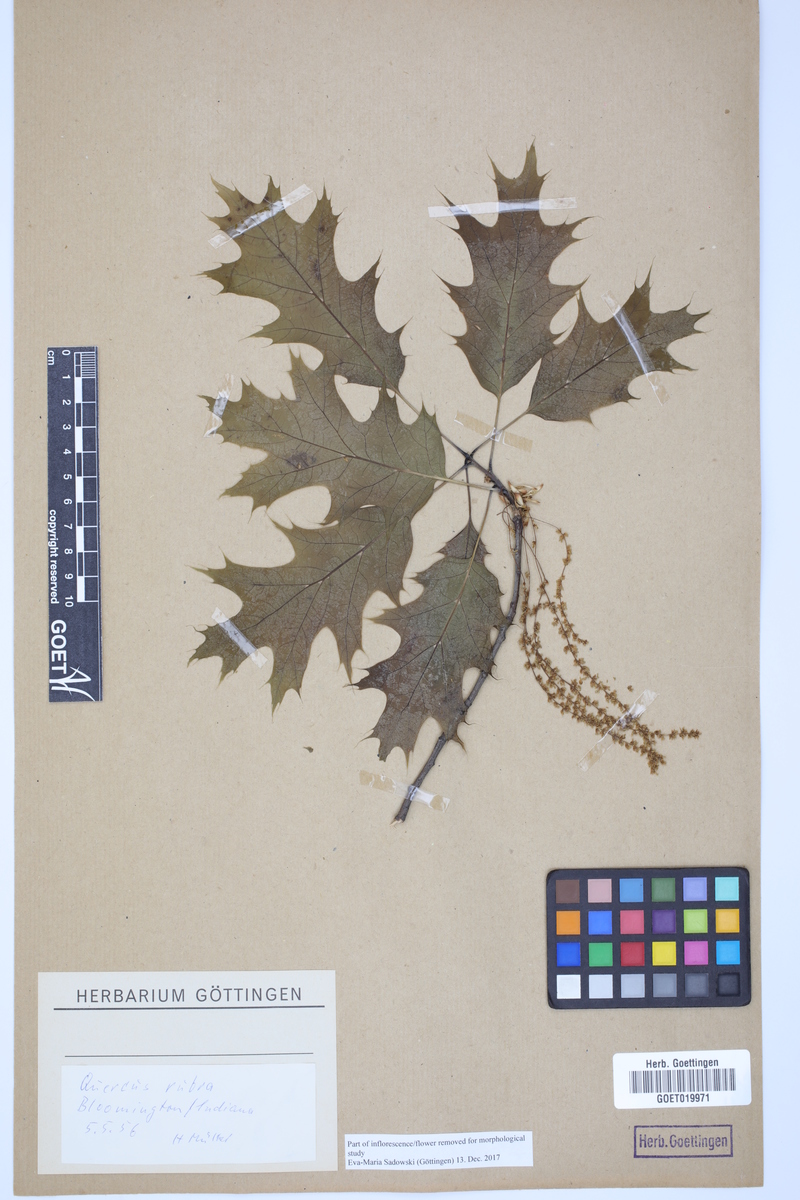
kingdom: Plantae
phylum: Tracheophyta
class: Magnoliopsida
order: Fagales
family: Fagaceae
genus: Quercus
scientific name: Quercus rubra
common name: Red oak
